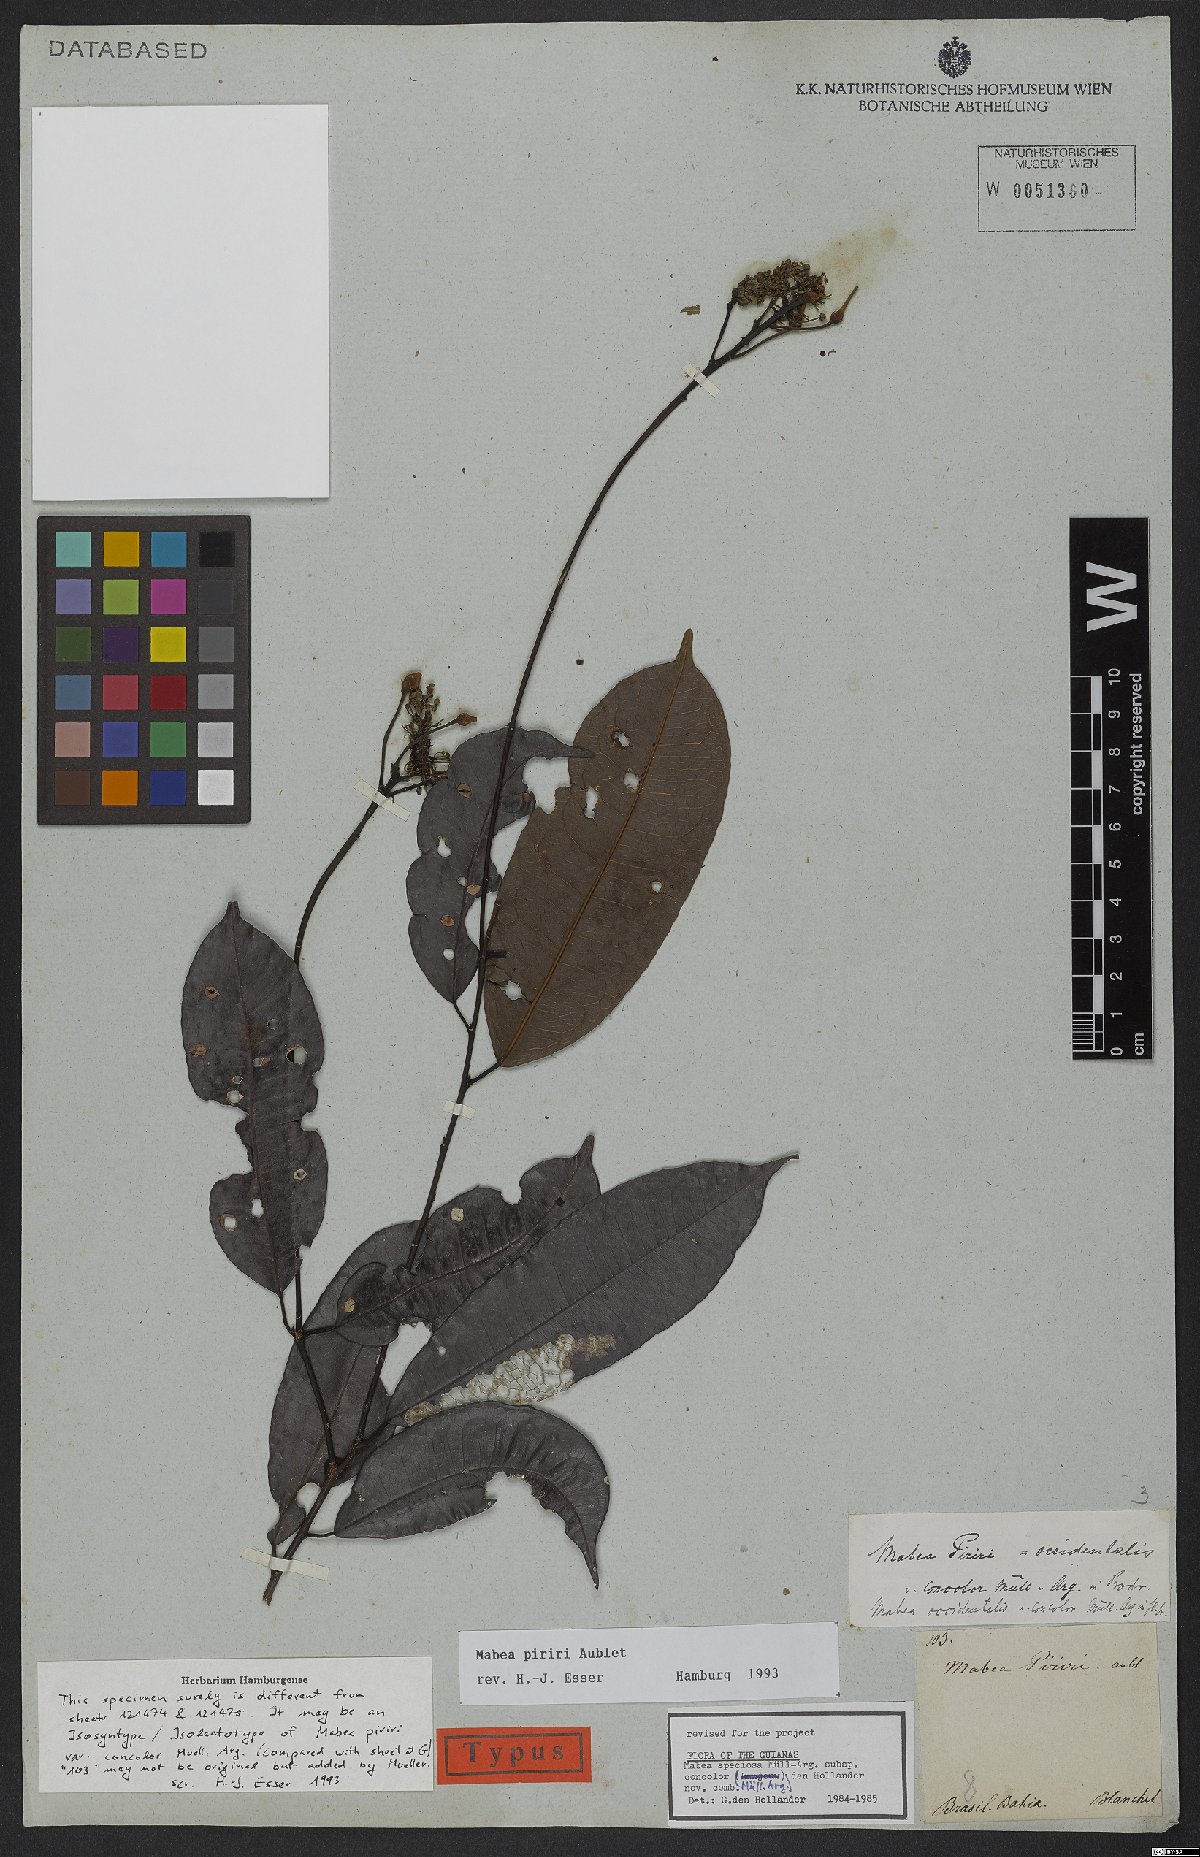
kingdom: Plantae
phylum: Tracheophyta
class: Magnoliopsida
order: Malpighiales
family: Euphorbiaceae
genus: Mabea
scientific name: Mabea piriri
